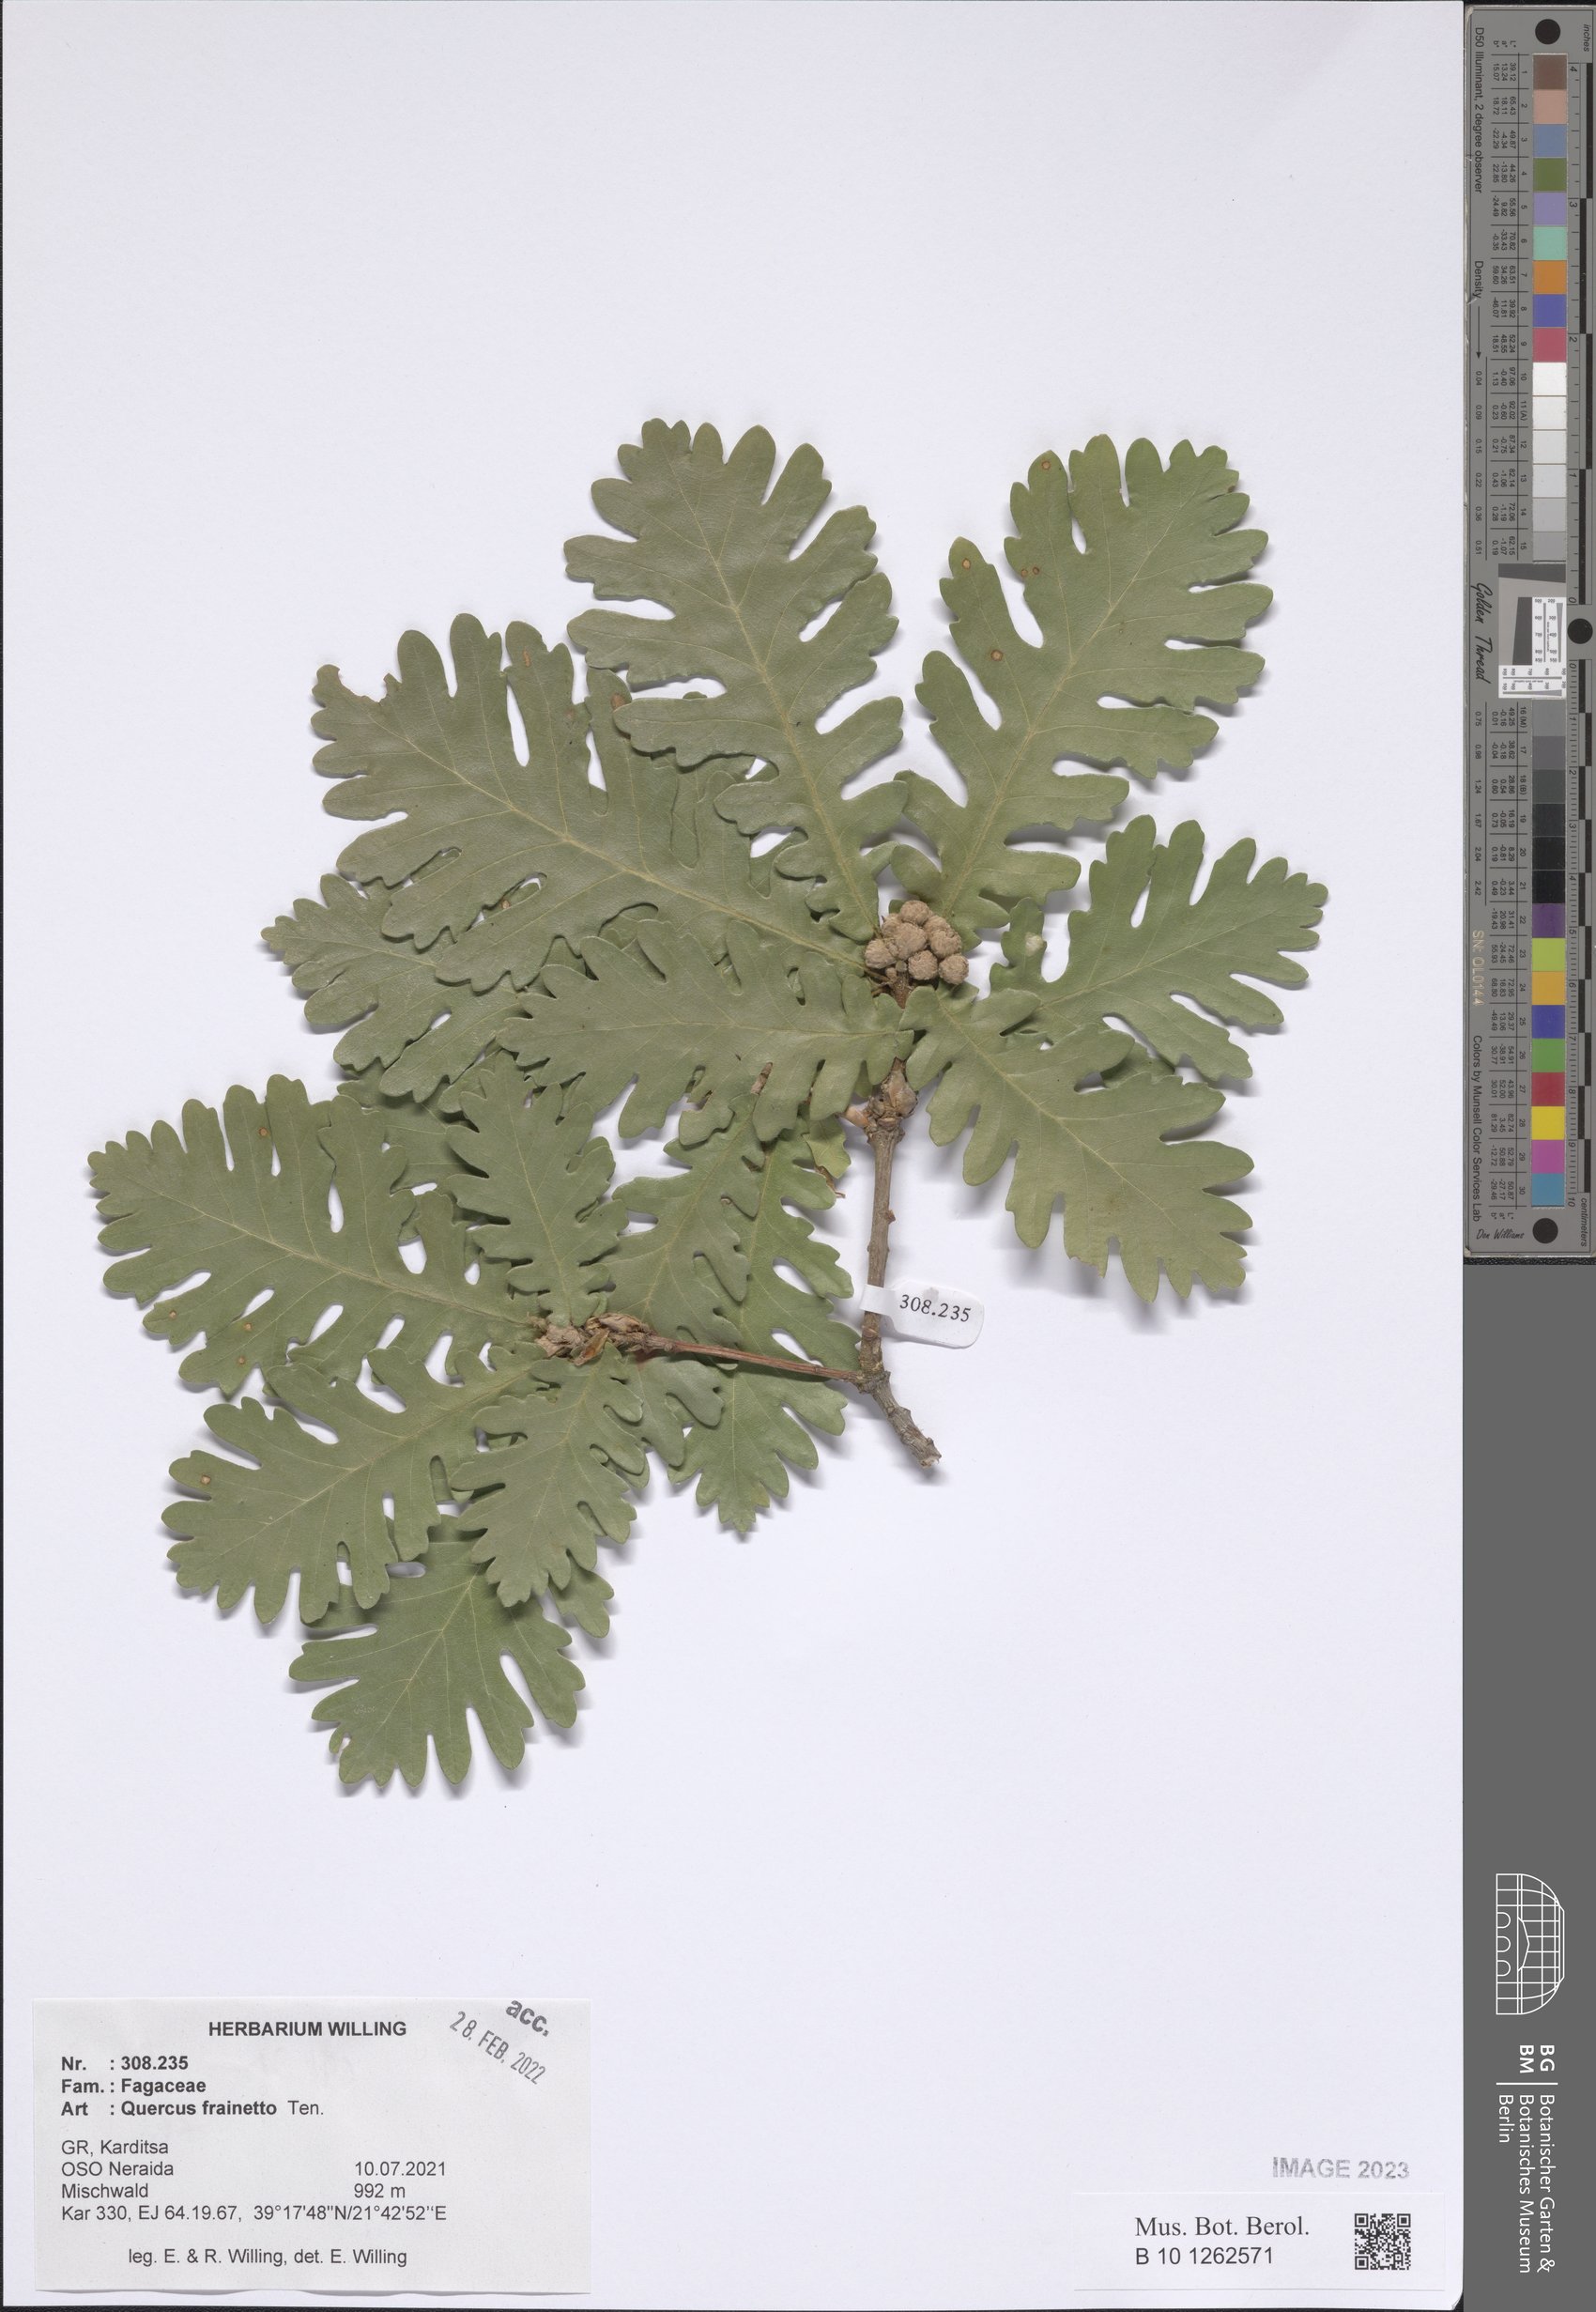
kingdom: Plantae
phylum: Tracheophyta
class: Magnoliopsida
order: Fagales
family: Fagaceae
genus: Quercus
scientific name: Quercus conferta
